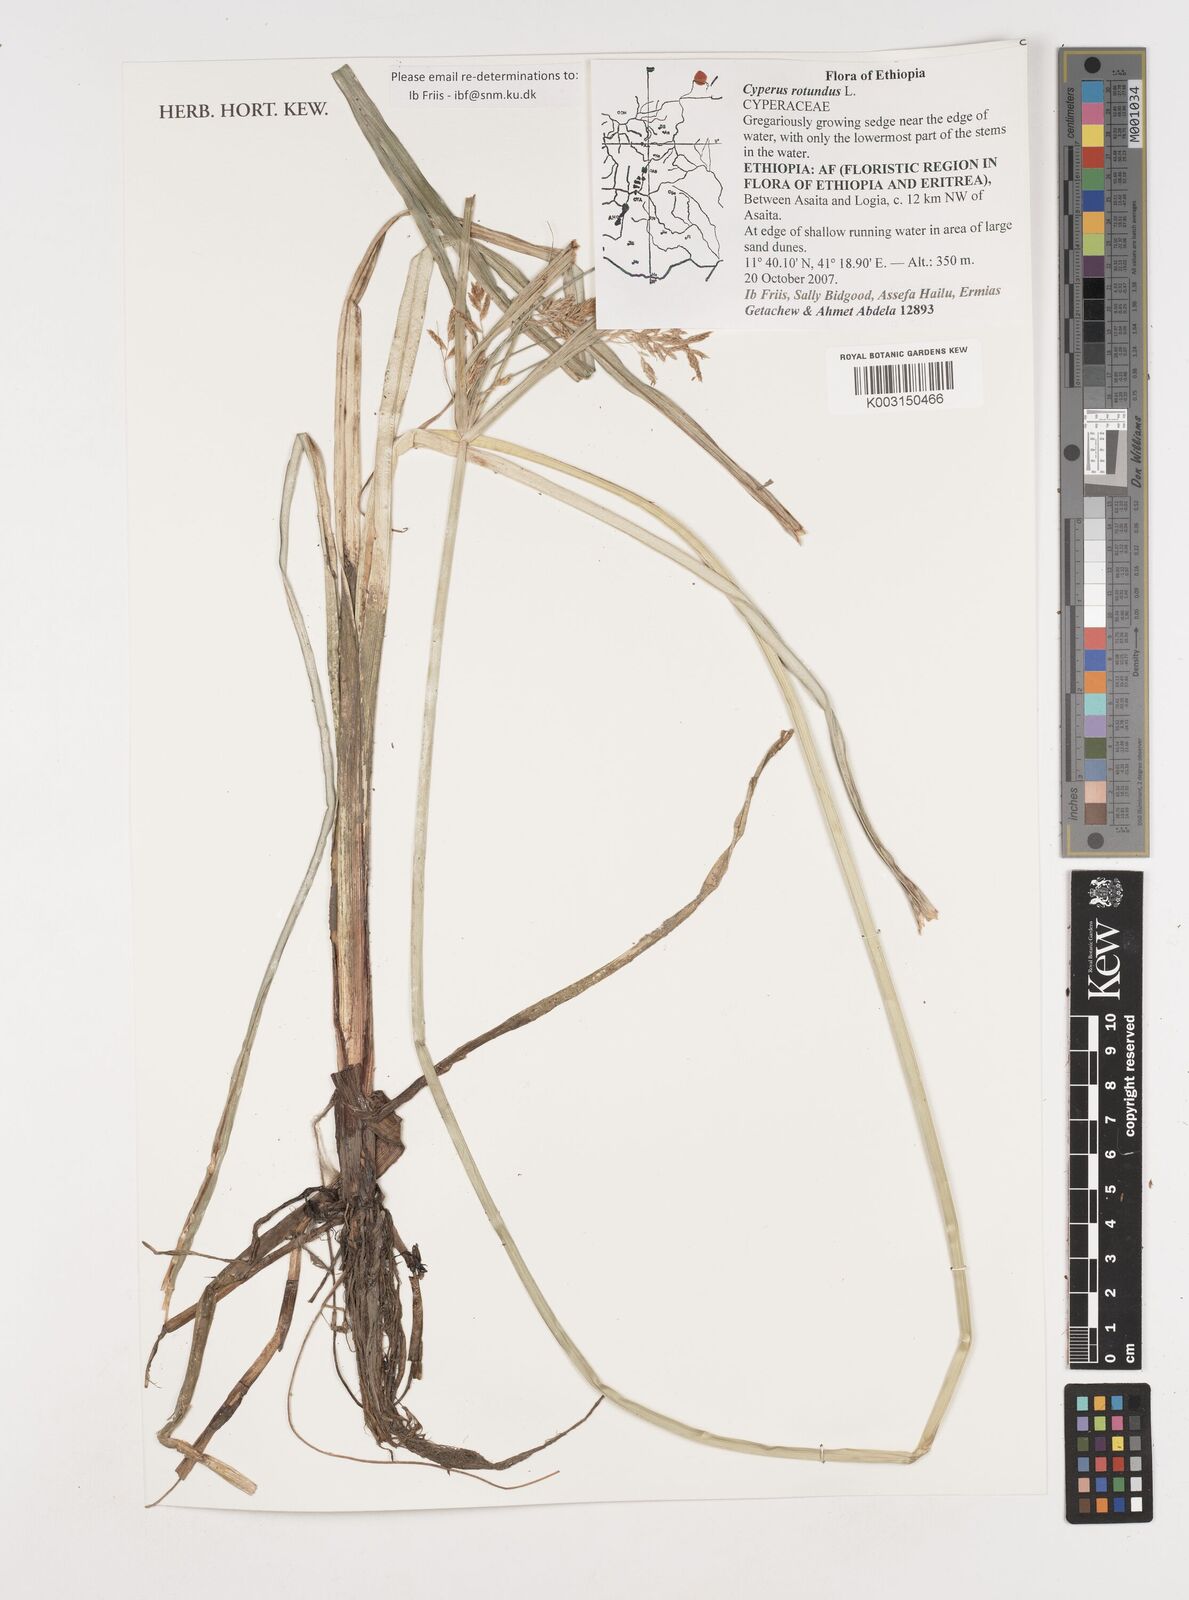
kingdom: Plantae
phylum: Tracheophyta
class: Liliopsida
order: Poales
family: Cyperaceae
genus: Cyperus
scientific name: Cyperus rotundus
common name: Nutgrass
